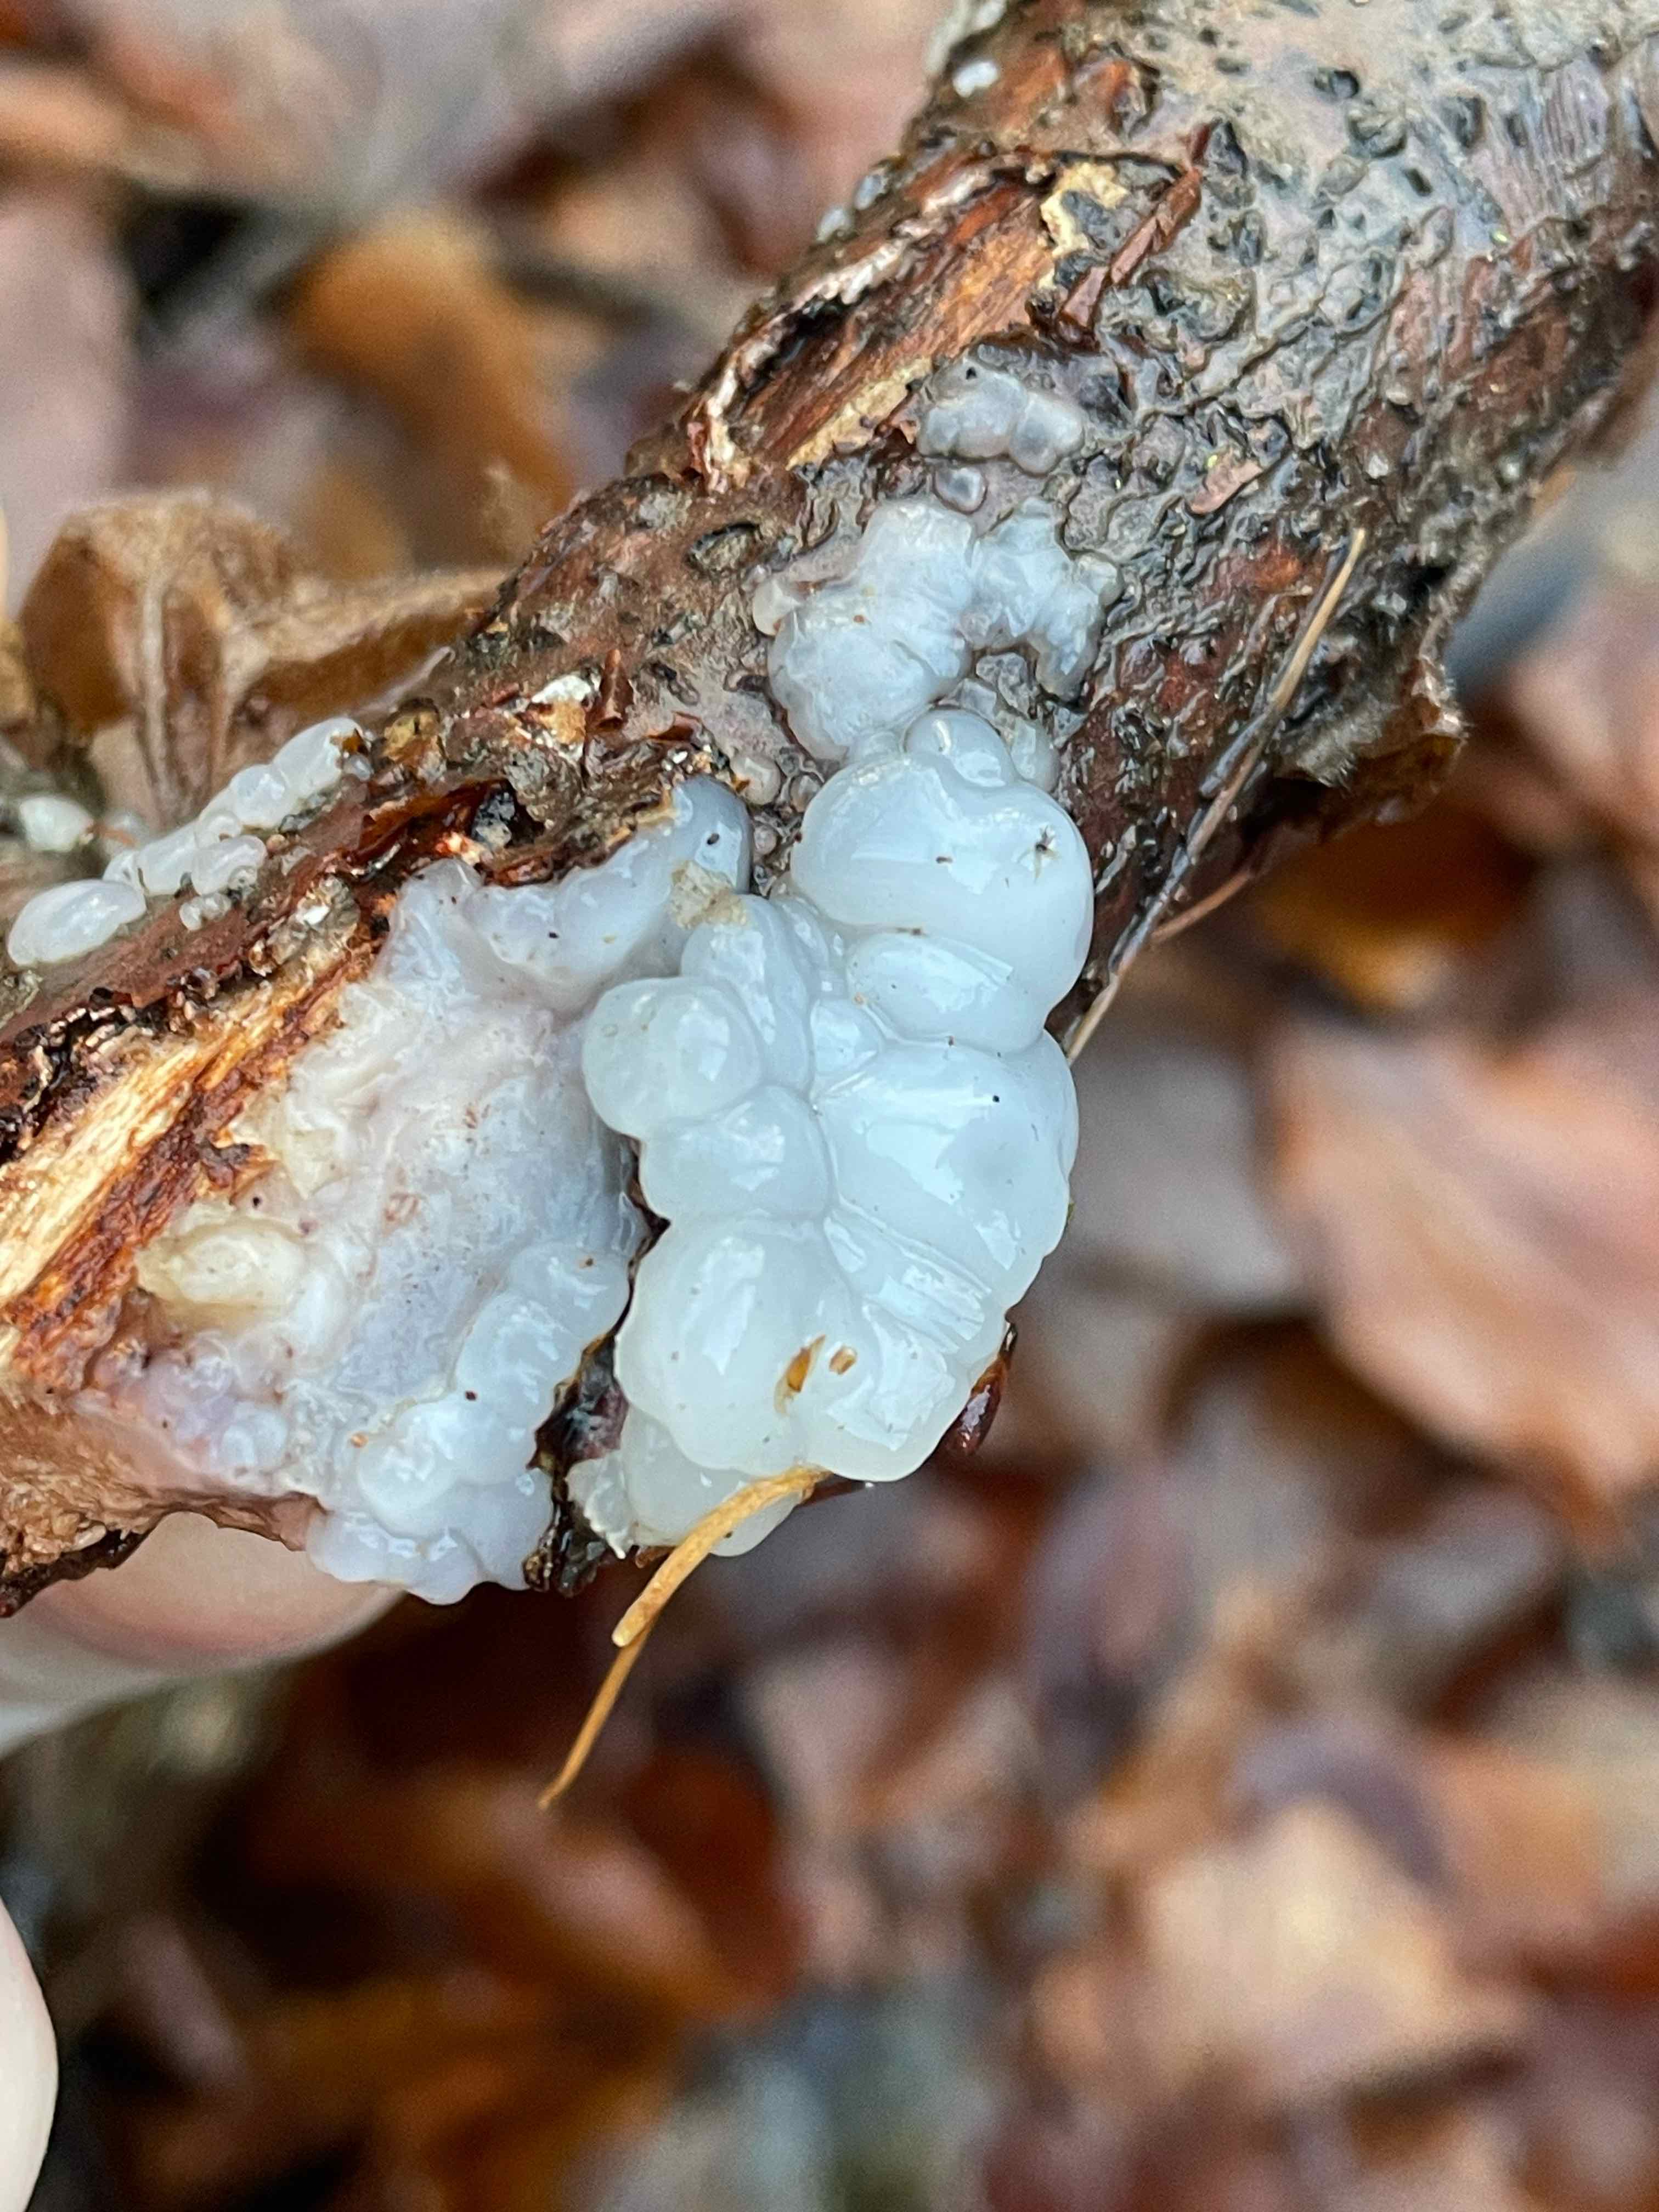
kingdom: Fungi
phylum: Basidiomycota
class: Agaricomycetes
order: Auriculariales
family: Auriculariaceae
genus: Exidia
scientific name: Exidia thuretiana
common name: hvidlig bævretop
